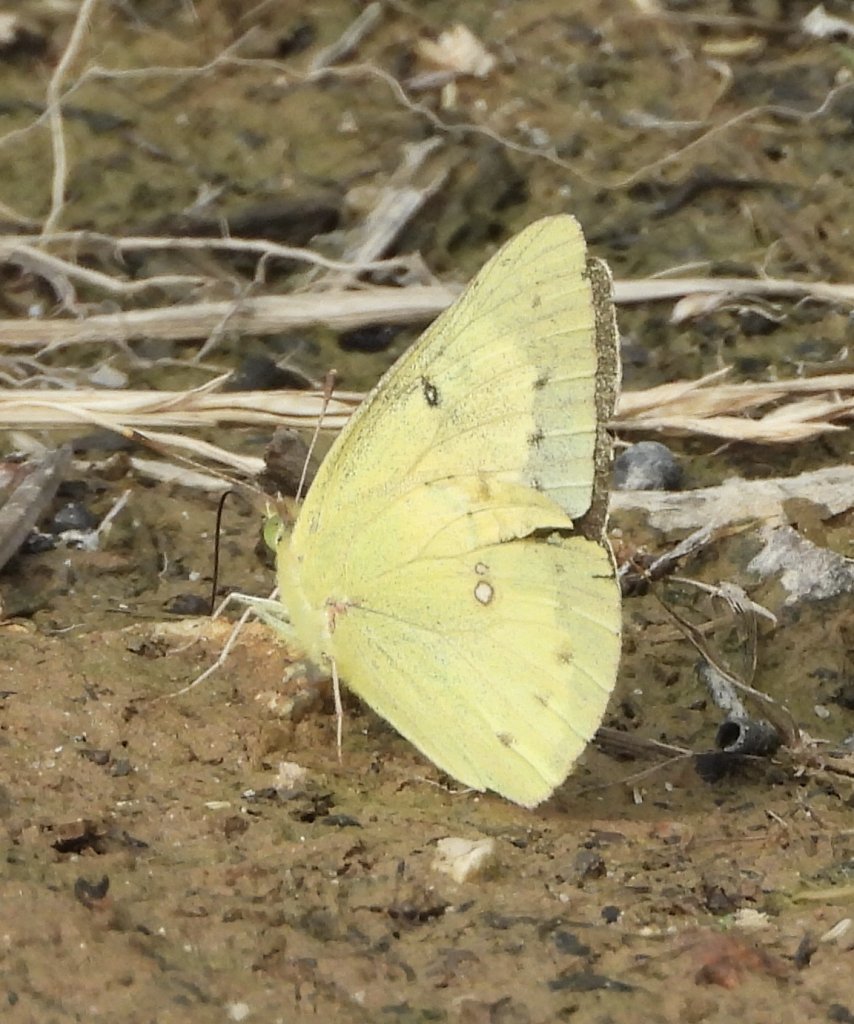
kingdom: Animalia
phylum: Arthropoda
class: Insecta
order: Lepidoptera
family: Pieridae
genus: Colias
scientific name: Colias eurytheme
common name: Orange Sulphur
